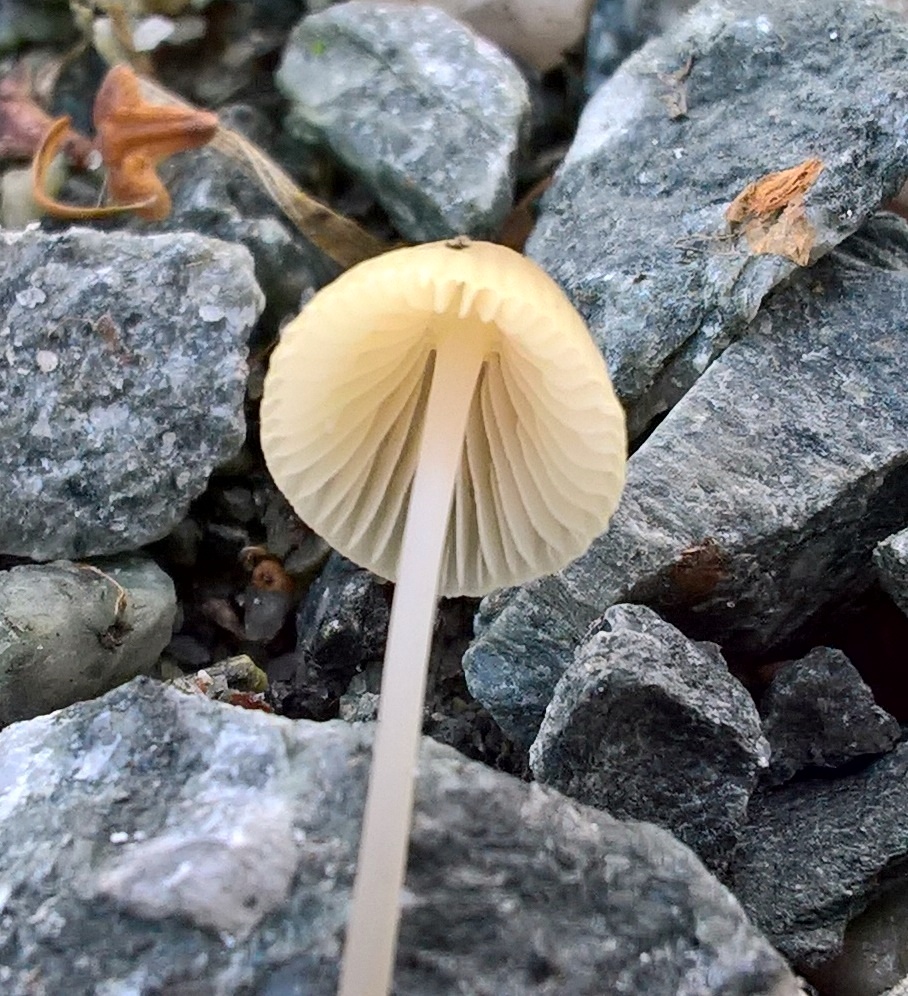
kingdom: Fungi
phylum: Basidiomycota
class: Agaricomycetes
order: Agaricales
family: Mycenaceae
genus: Mycena
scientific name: Mycena
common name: huesvamp
